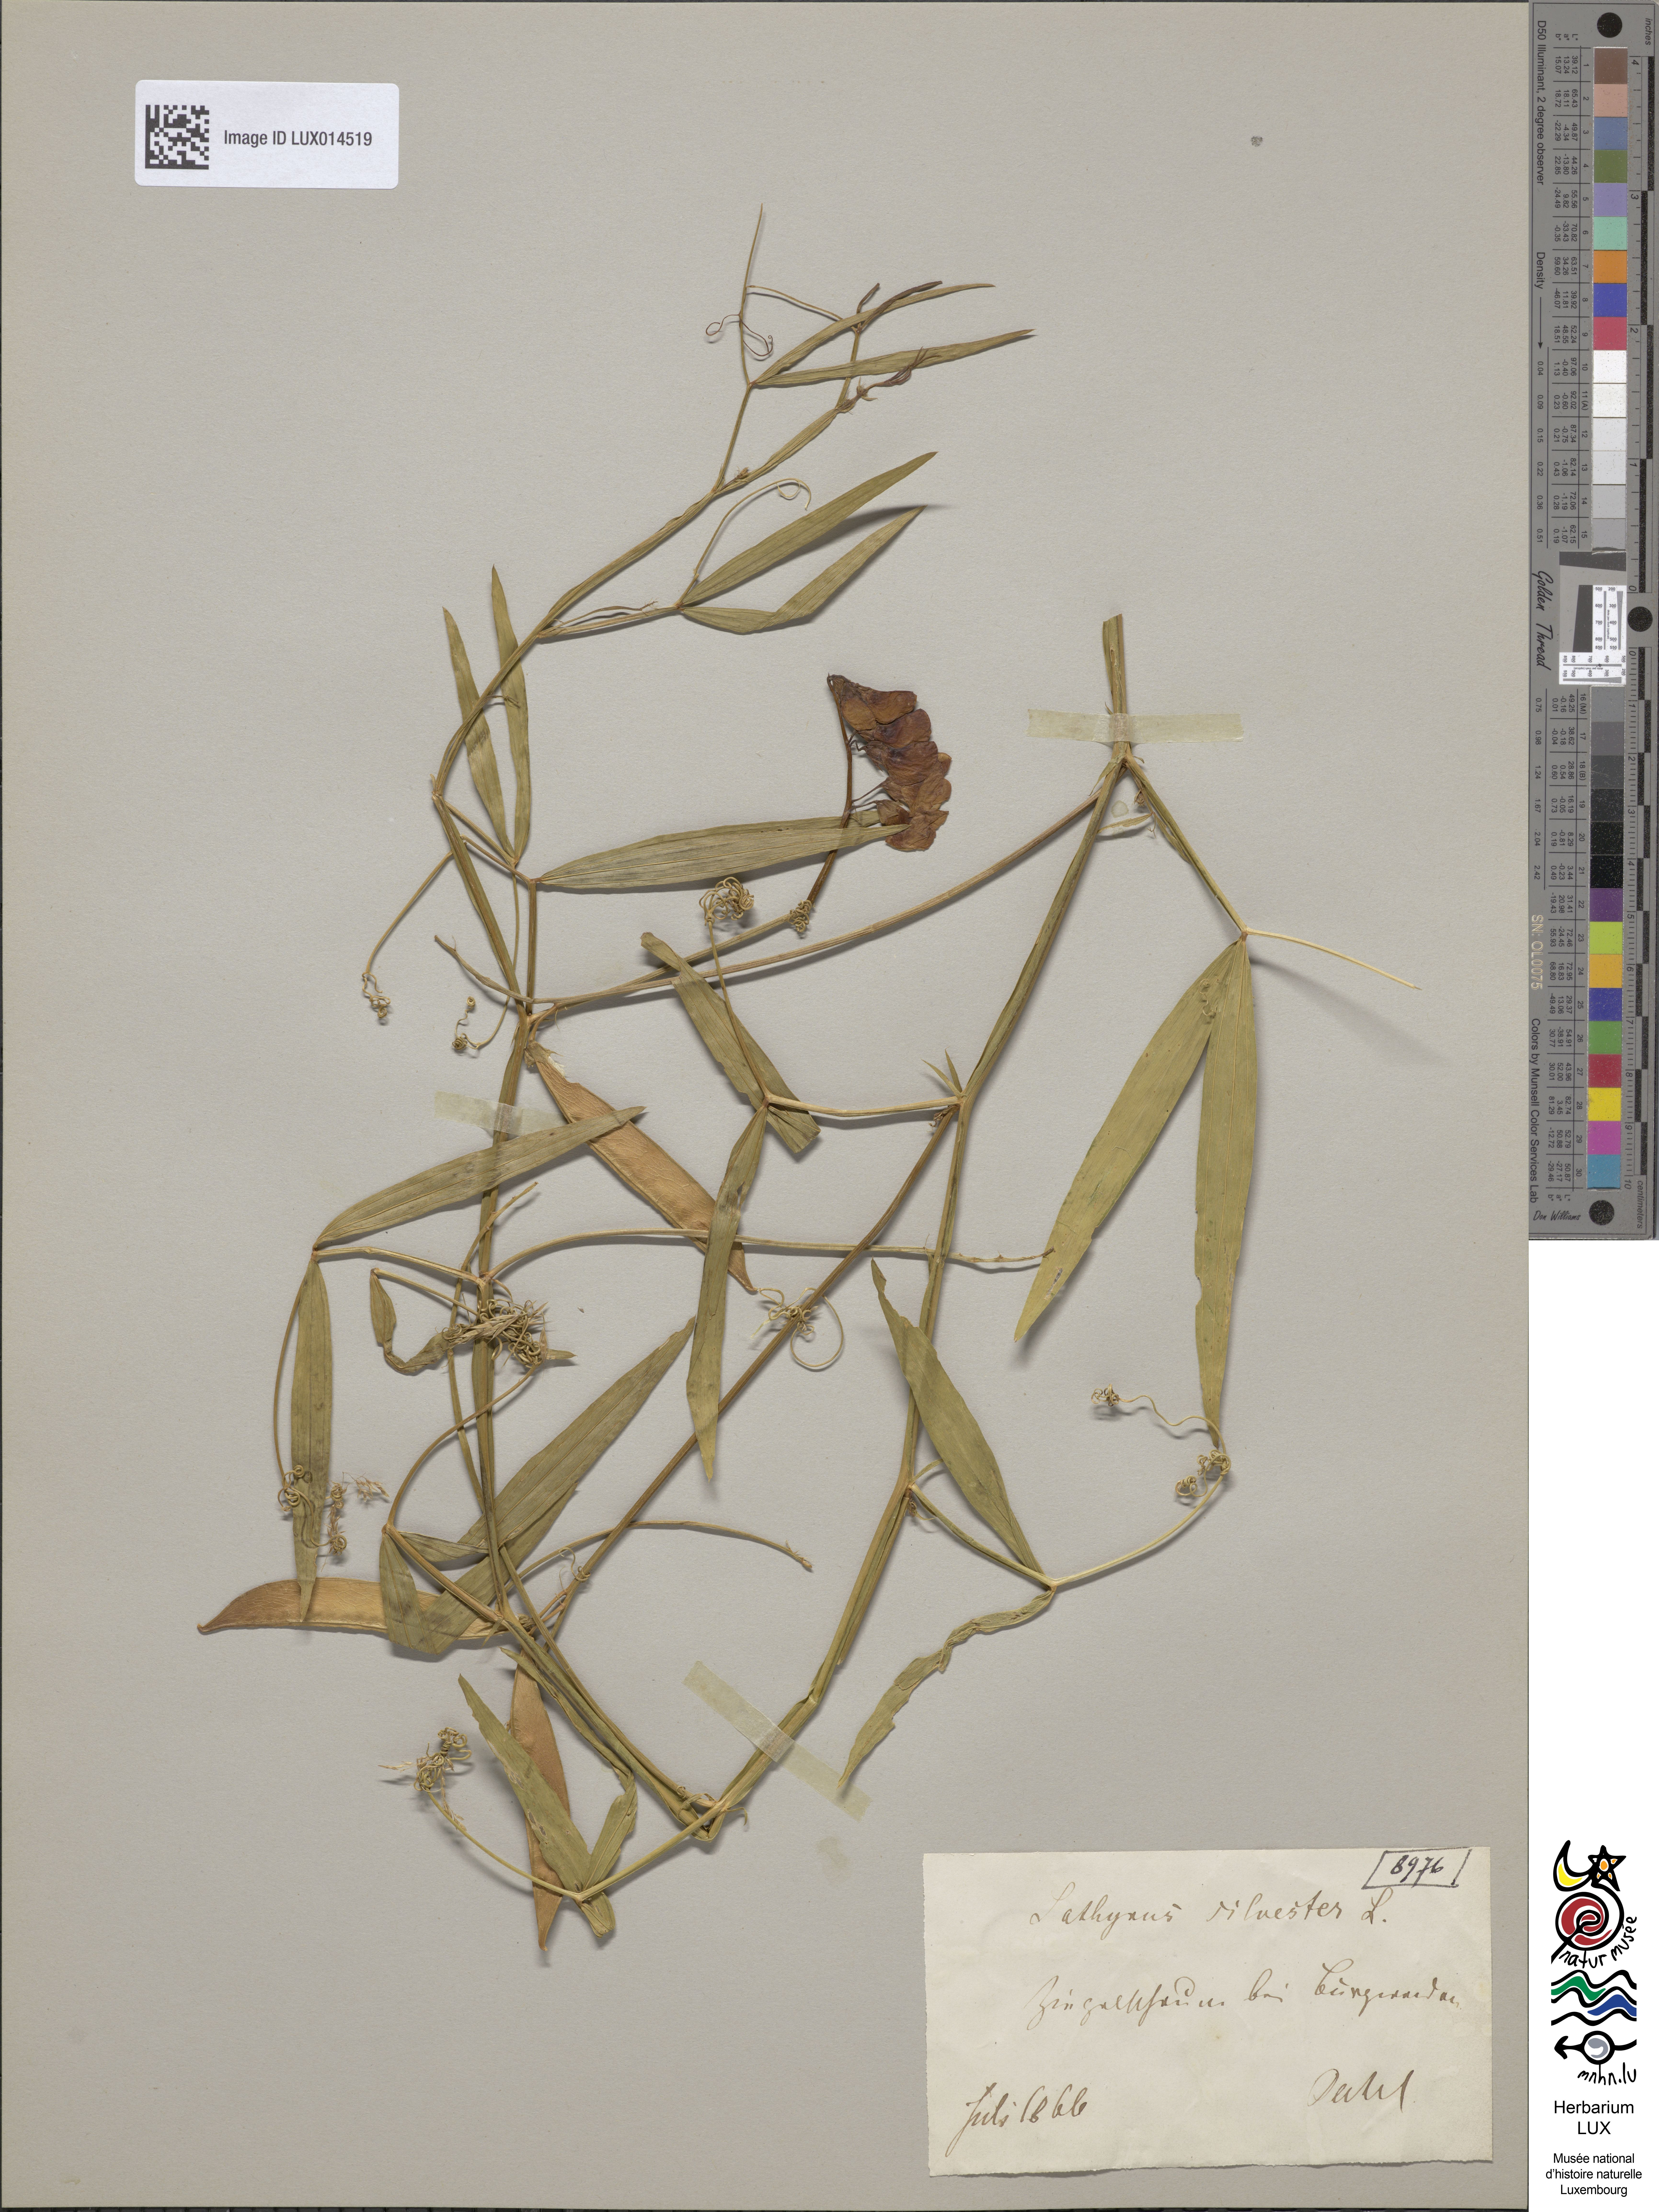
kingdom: Plantae
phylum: Tracheophyta
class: Magnoliopsida
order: Fabales
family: Fabaceae
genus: Lathyrus
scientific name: Lathyrus sylvestris
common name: Flat pea
